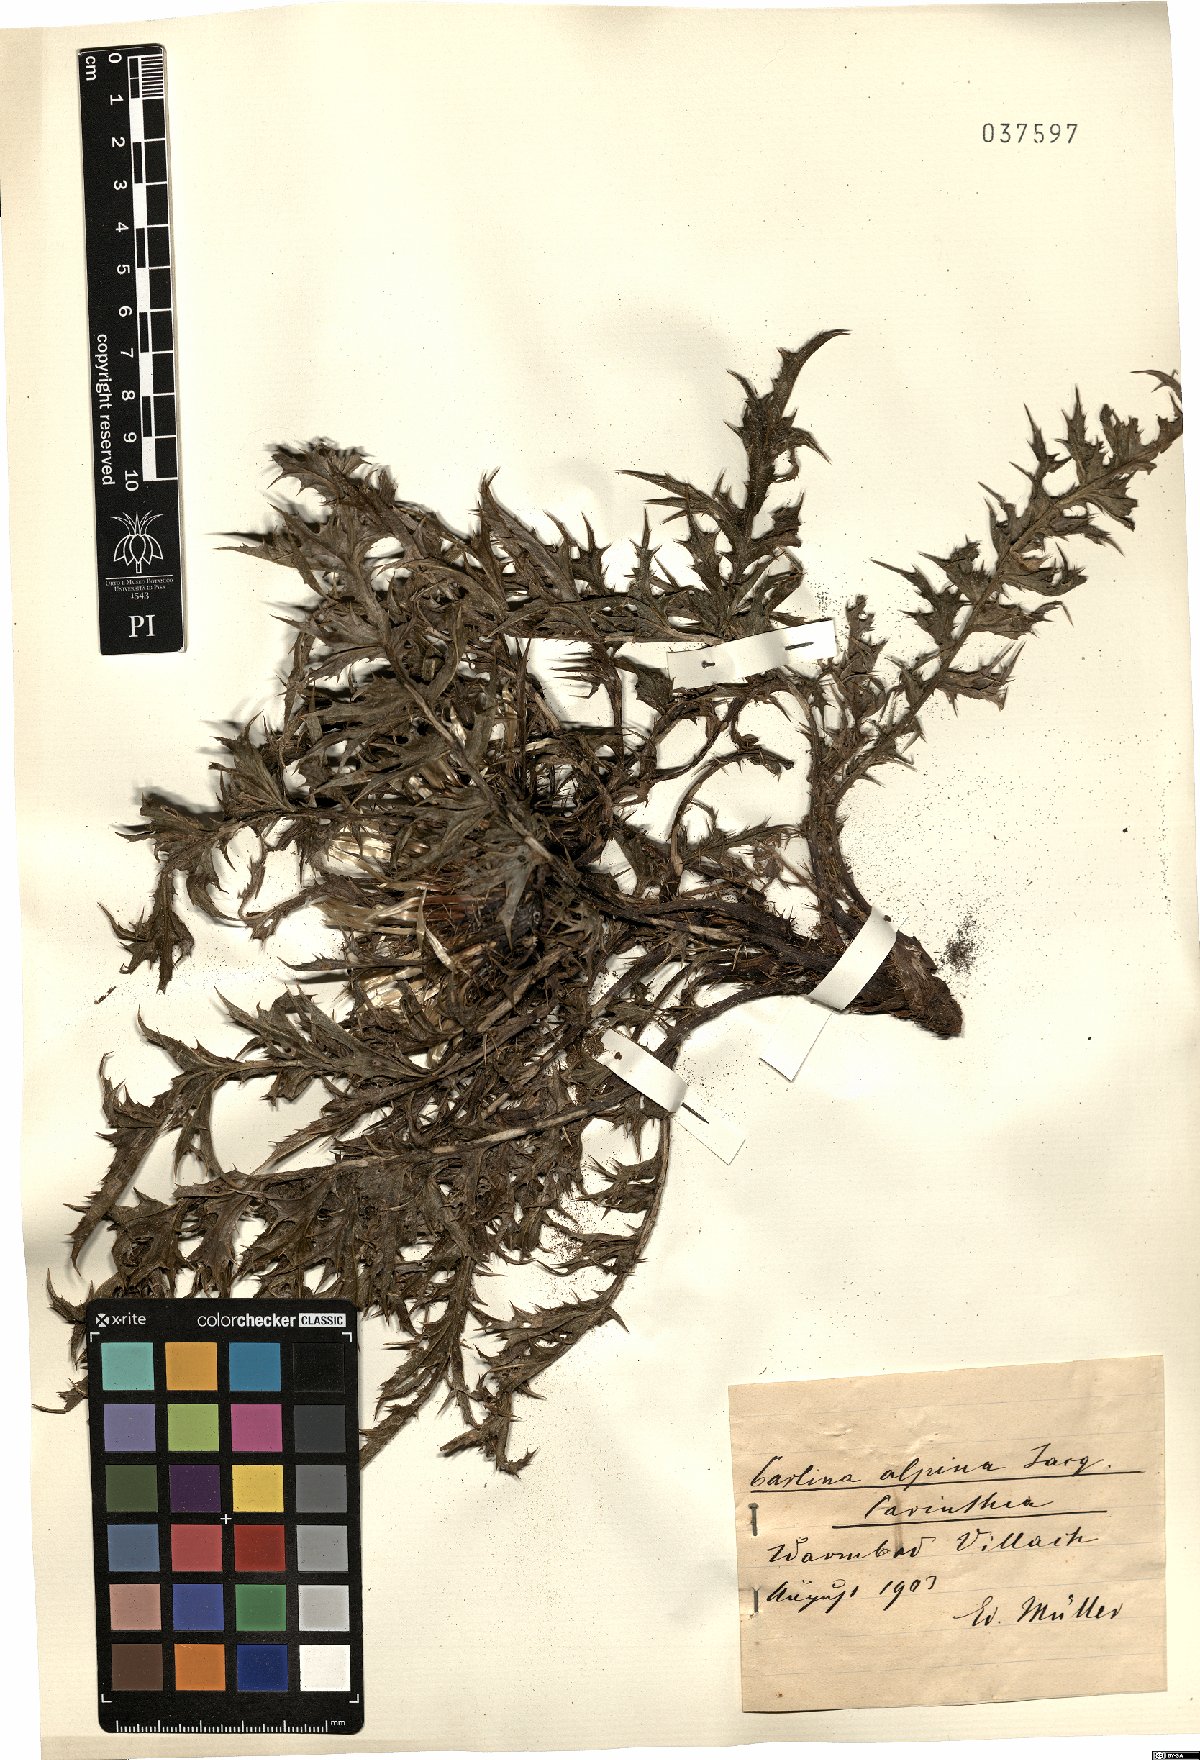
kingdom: Plantae
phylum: Tracheophyta
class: Magnoliopsida
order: Asterales
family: Asteraceae
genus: Carlina
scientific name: Carlina acaulis
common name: Stemless carline thistle
